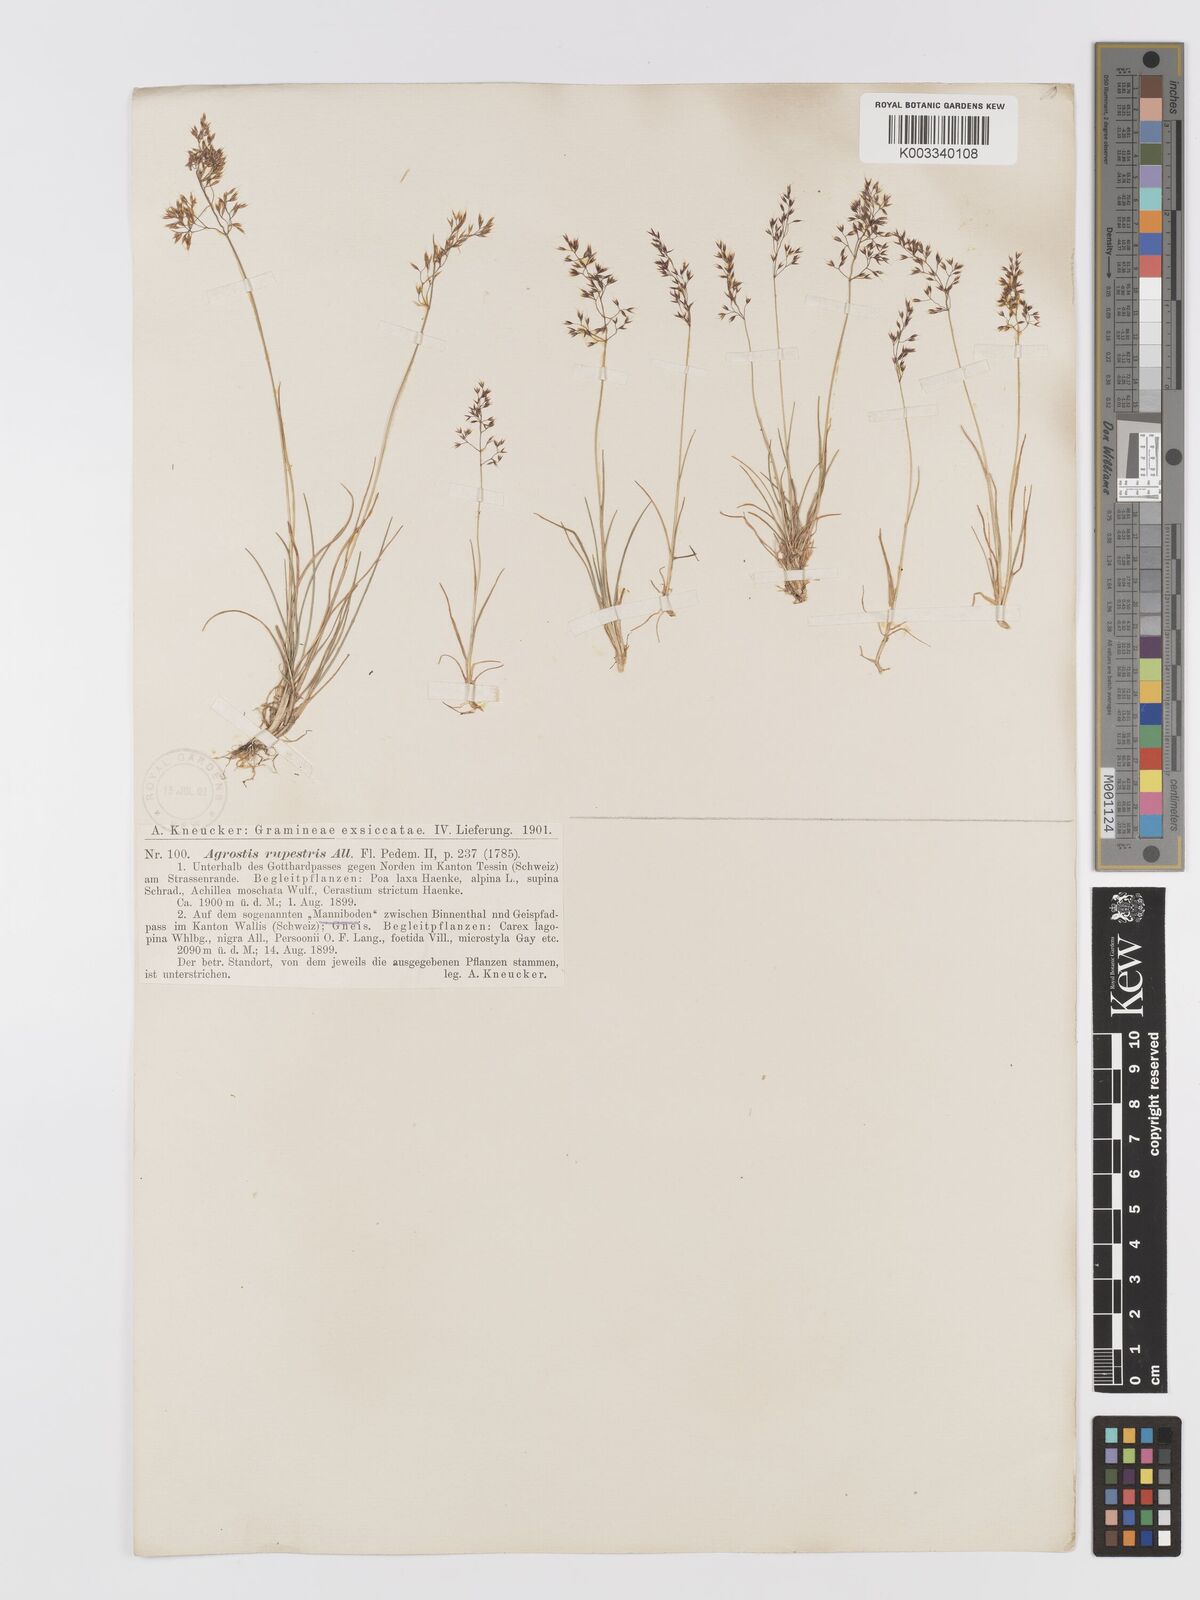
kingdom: Plantae
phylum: Tracheophyta
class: Liliopsida
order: Poales
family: Poaceae
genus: Agrostis
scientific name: Agrostis rupestris
